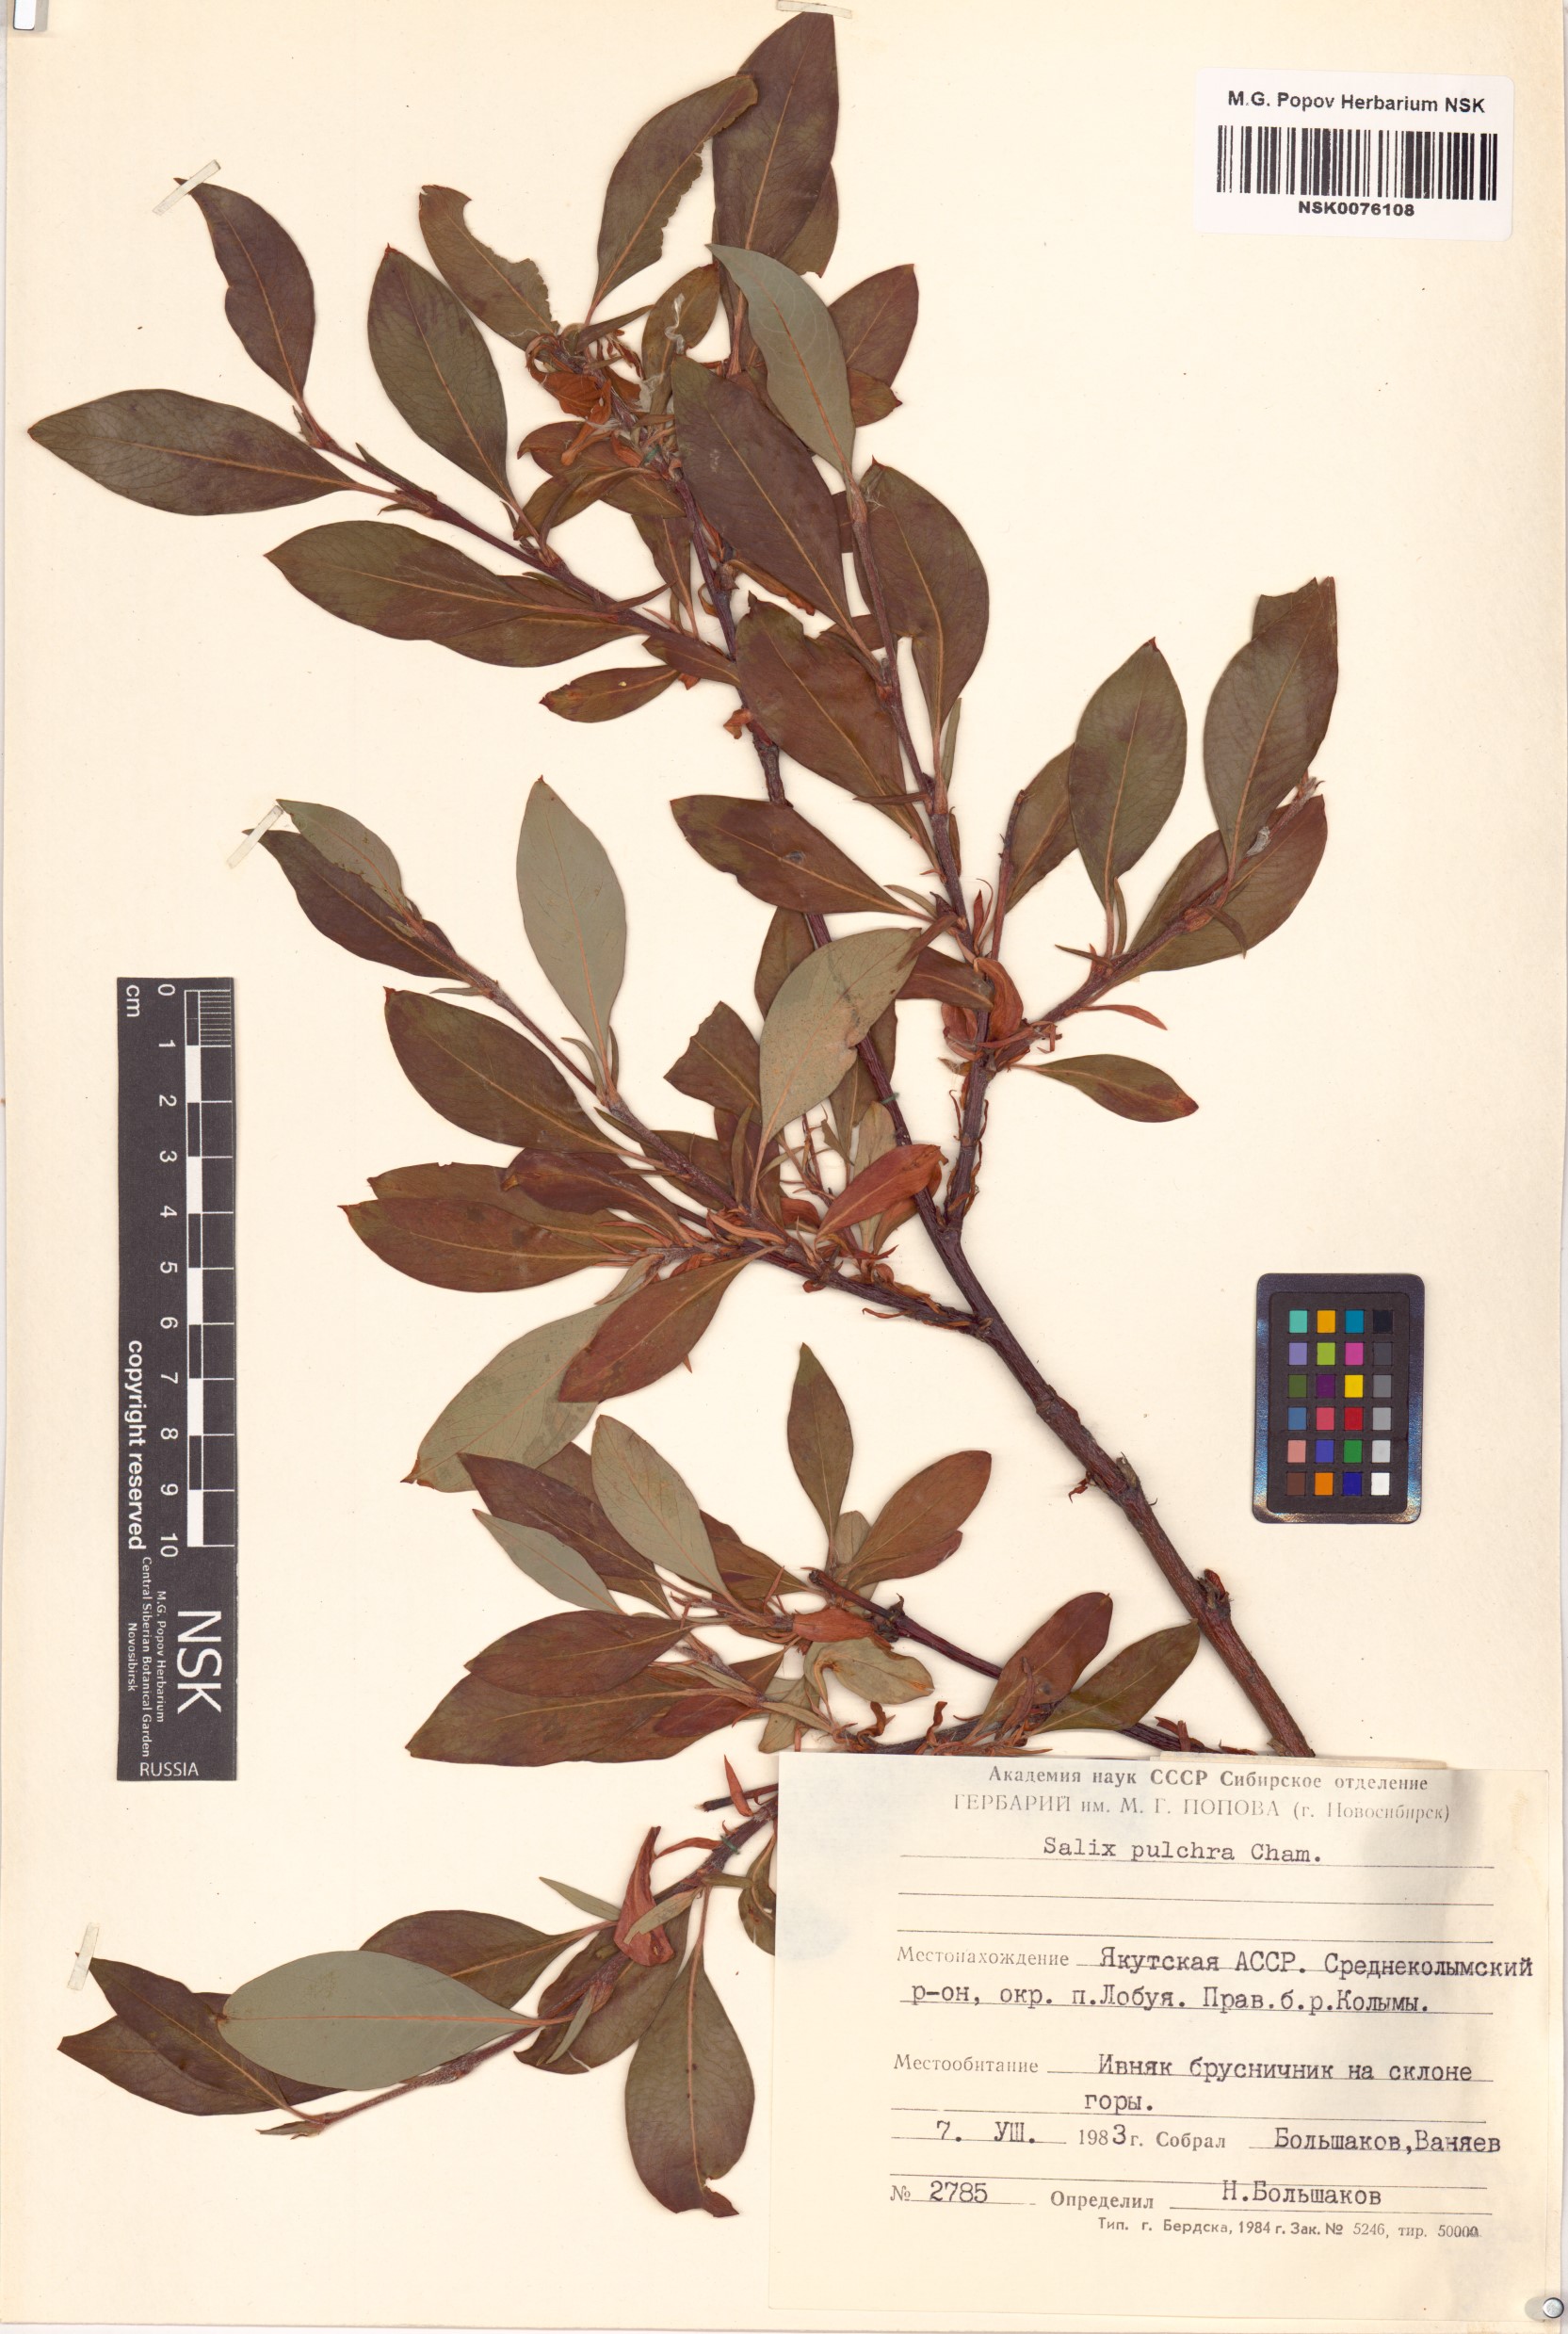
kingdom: Plantae
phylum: Tracheophyta
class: Magnoliopsida
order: Malpighiales
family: Salicaceae
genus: Salix
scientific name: Salix pulchra
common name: Diamond-leaved willow
